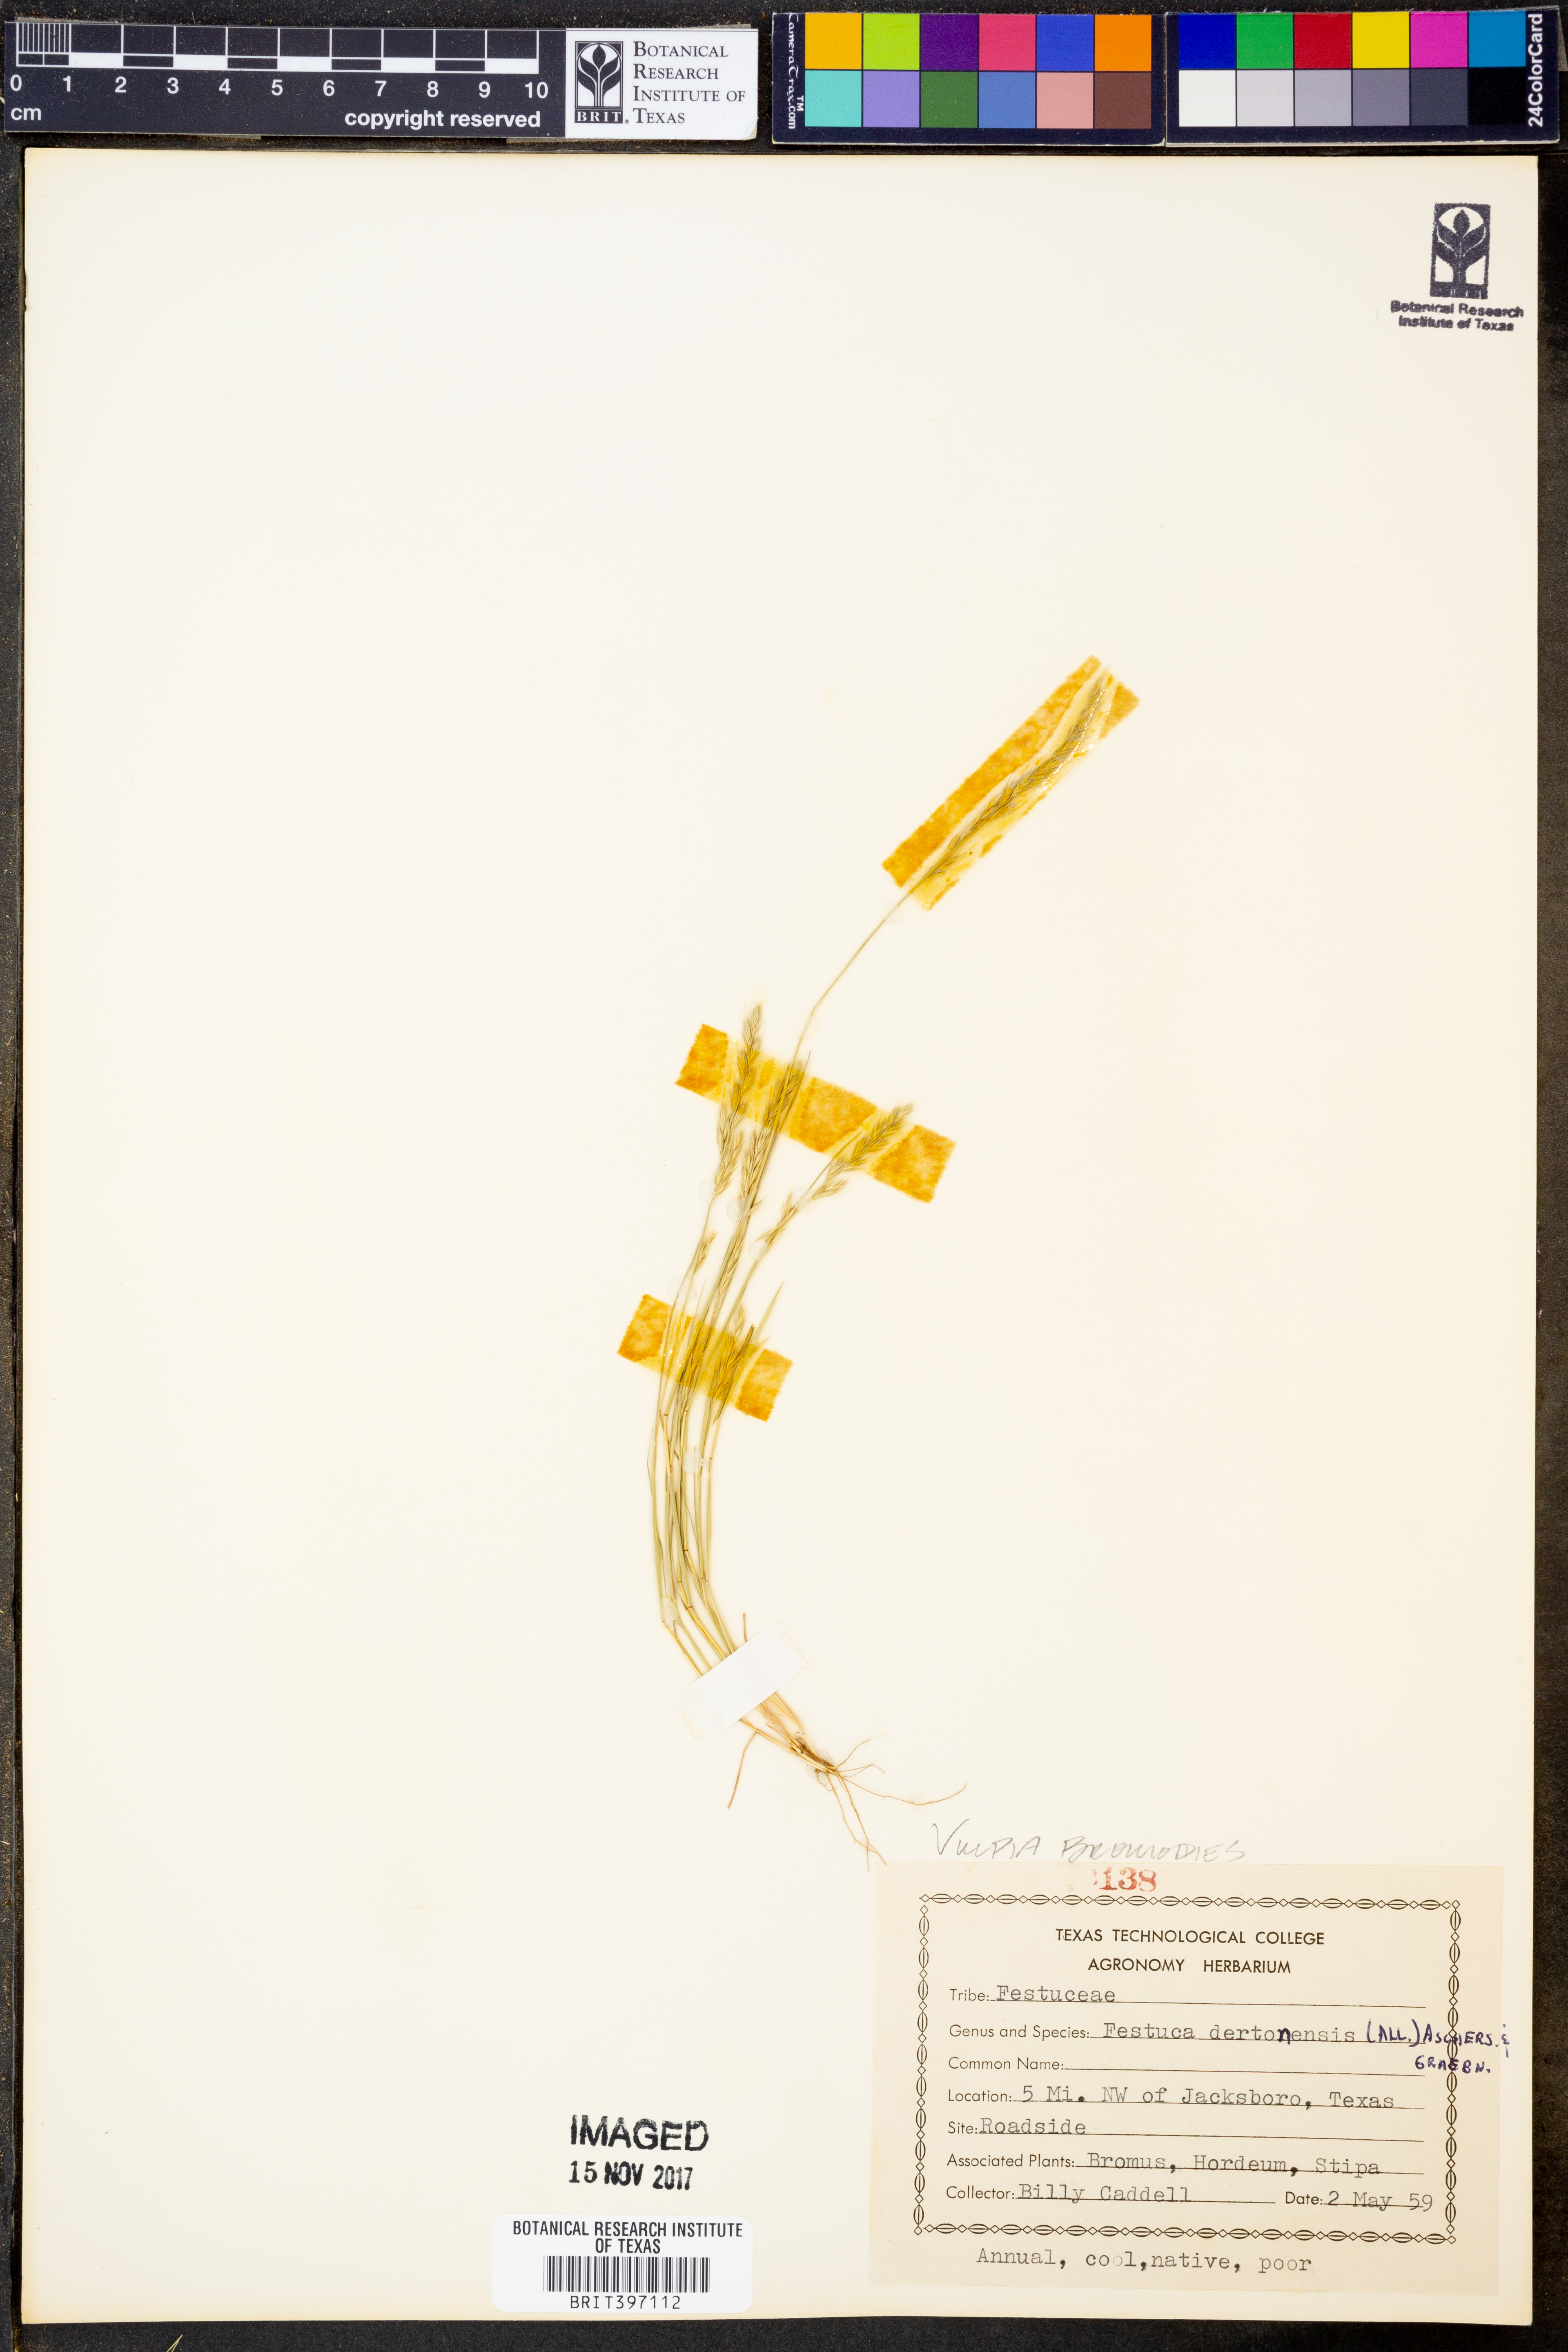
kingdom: Plantae
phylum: Tracheophyta
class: Liliopsida
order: Poales
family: Poaceae
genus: Festuca
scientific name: Festuca bromoides
